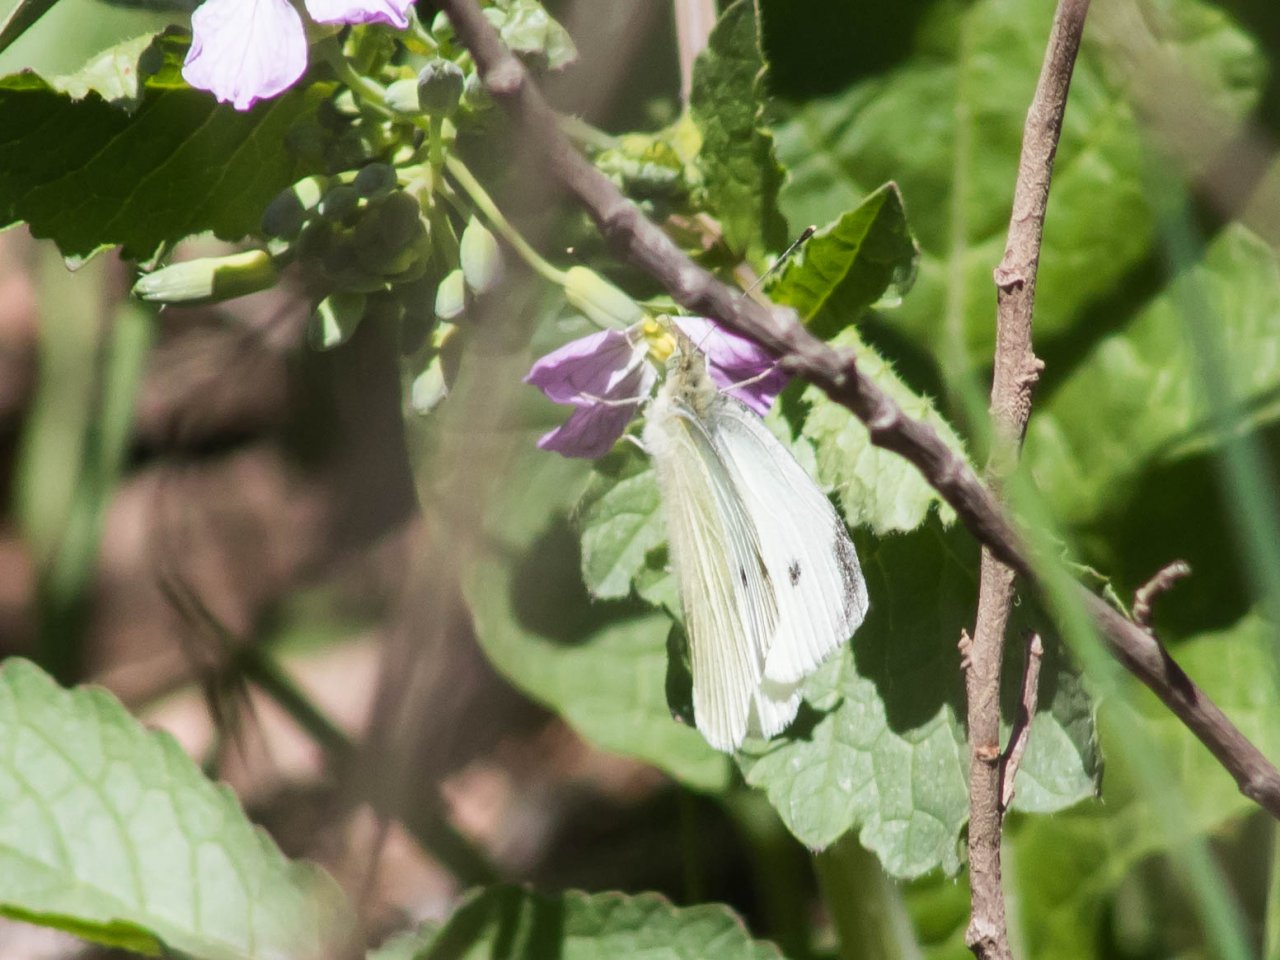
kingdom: Animalia
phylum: Arthropoda
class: Insecta
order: Lepidoptera
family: Pieridae
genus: Pieris
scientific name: Pieris rapae
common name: Cabbage White
